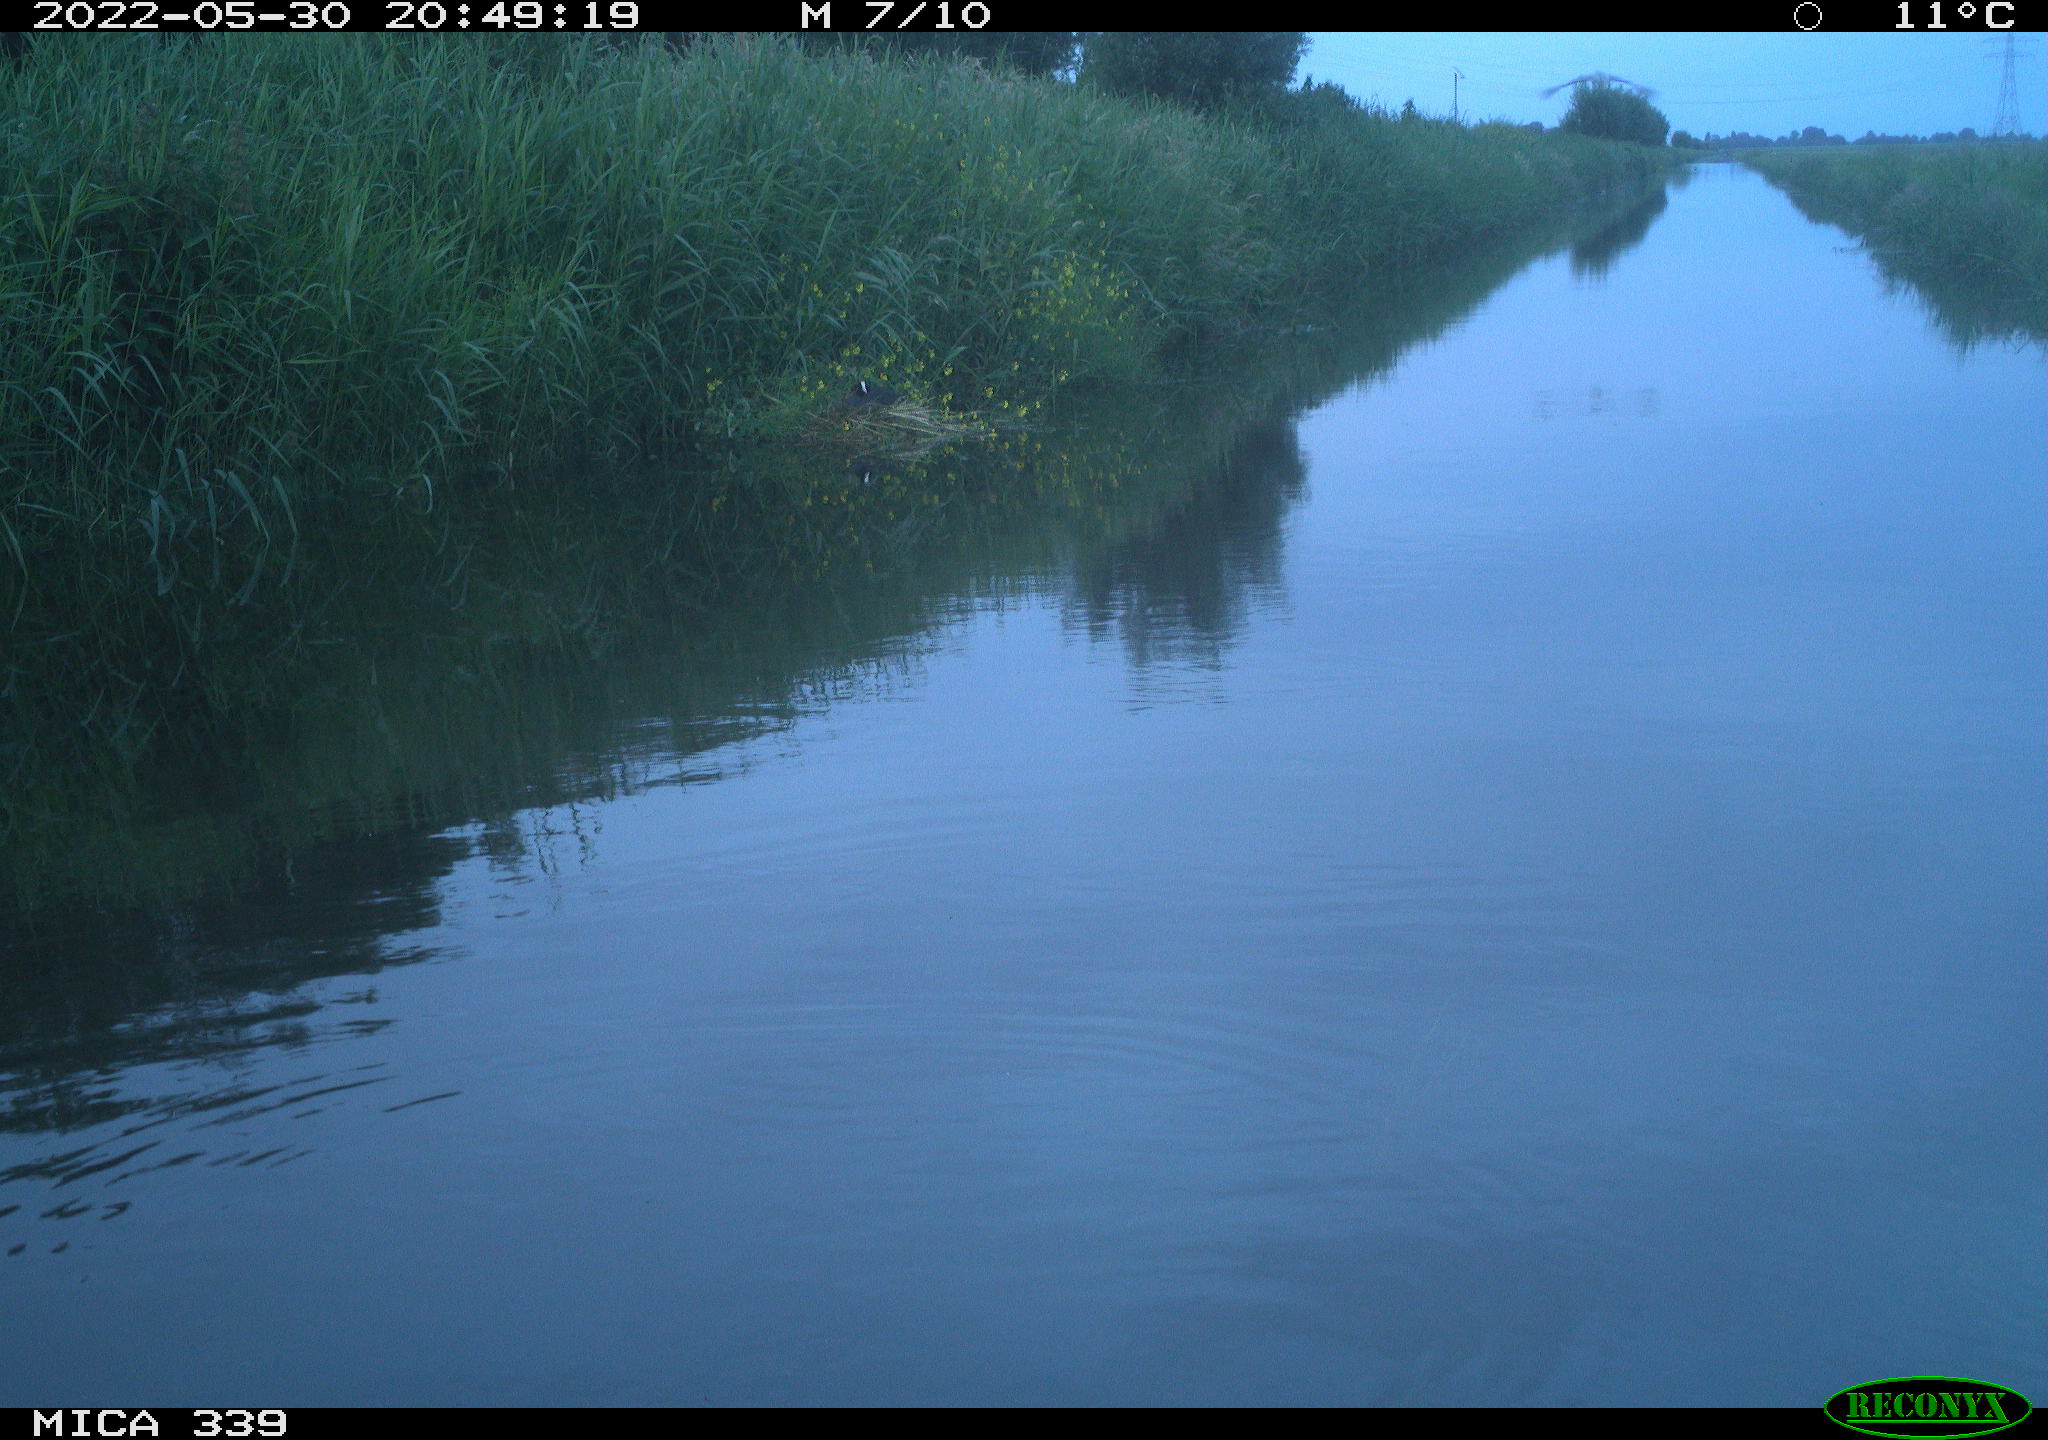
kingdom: Animalia
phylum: Chordata
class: Aves
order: Pelecaniformes
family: Ardeidae
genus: Ardea
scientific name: Ardea cinerea
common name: Grey heron
